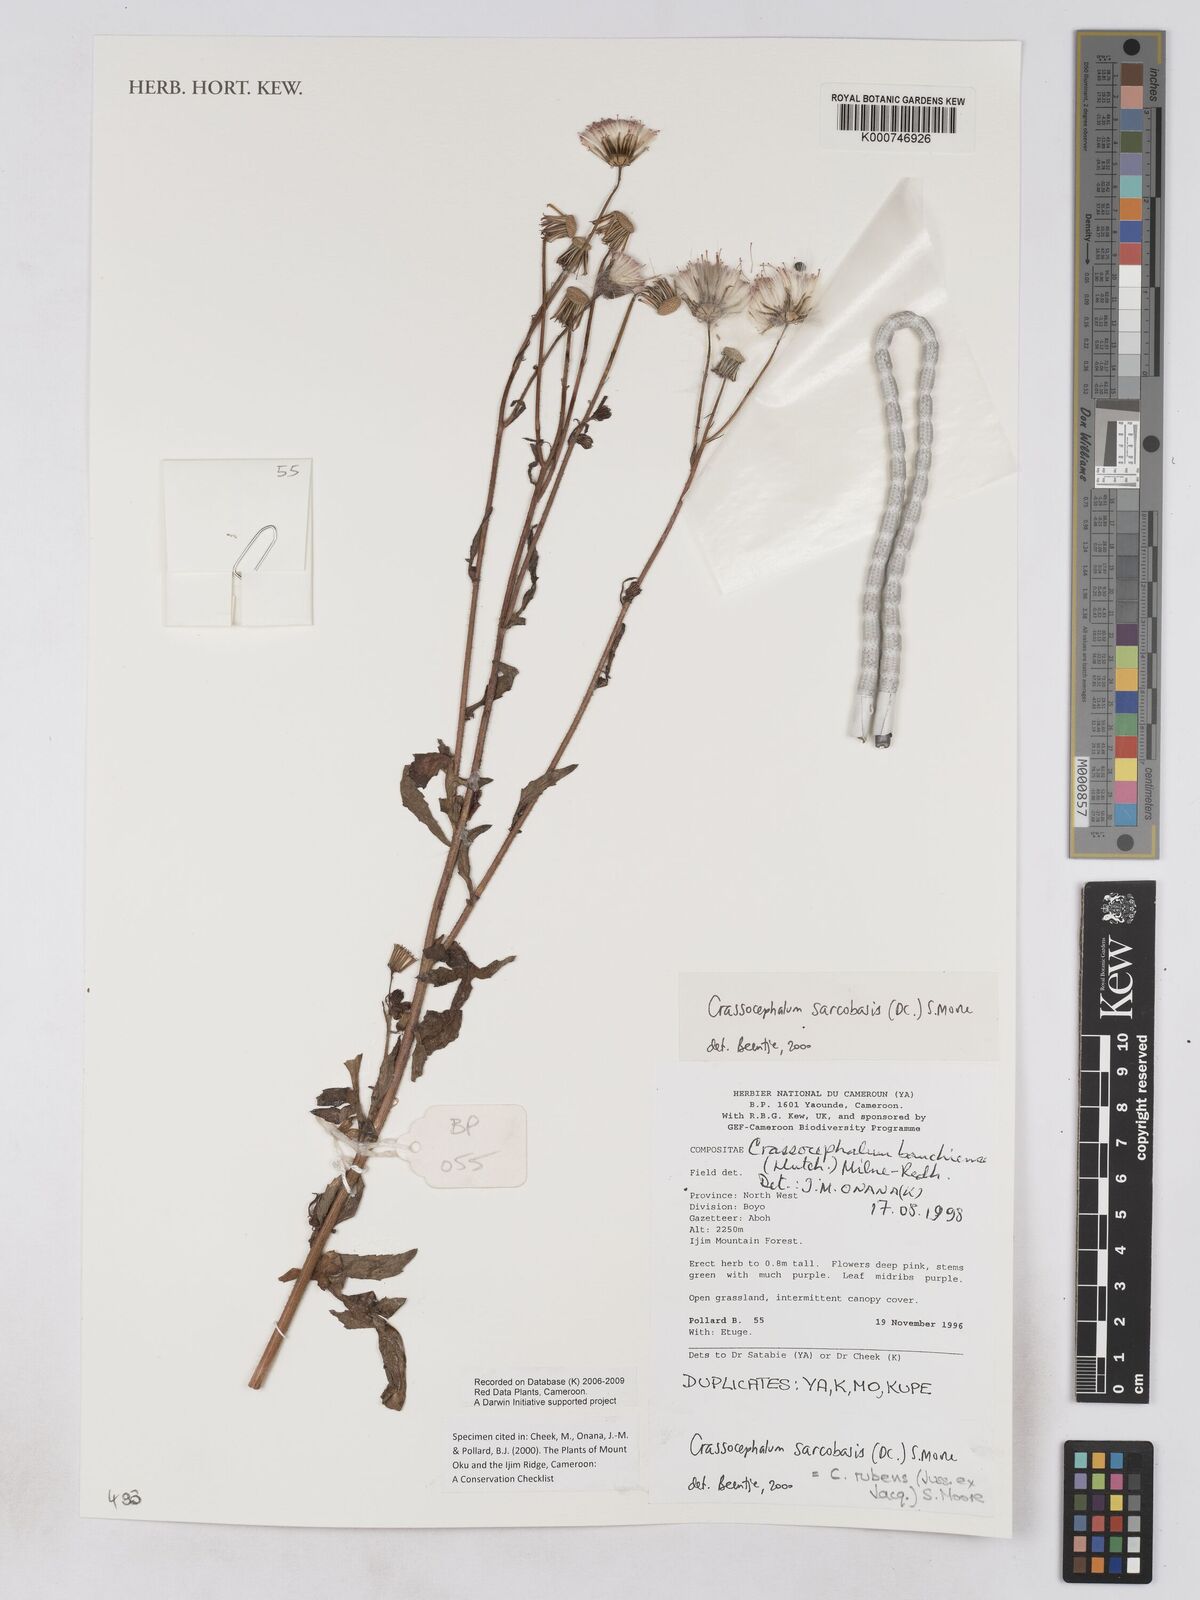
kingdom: Plantae
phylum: Tracheophyta
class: Magnoliopsida
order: Asterales
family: Asteraceae
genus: Crassocephalum
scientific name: Crassocephalum rubens
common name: Yoruban bologi
